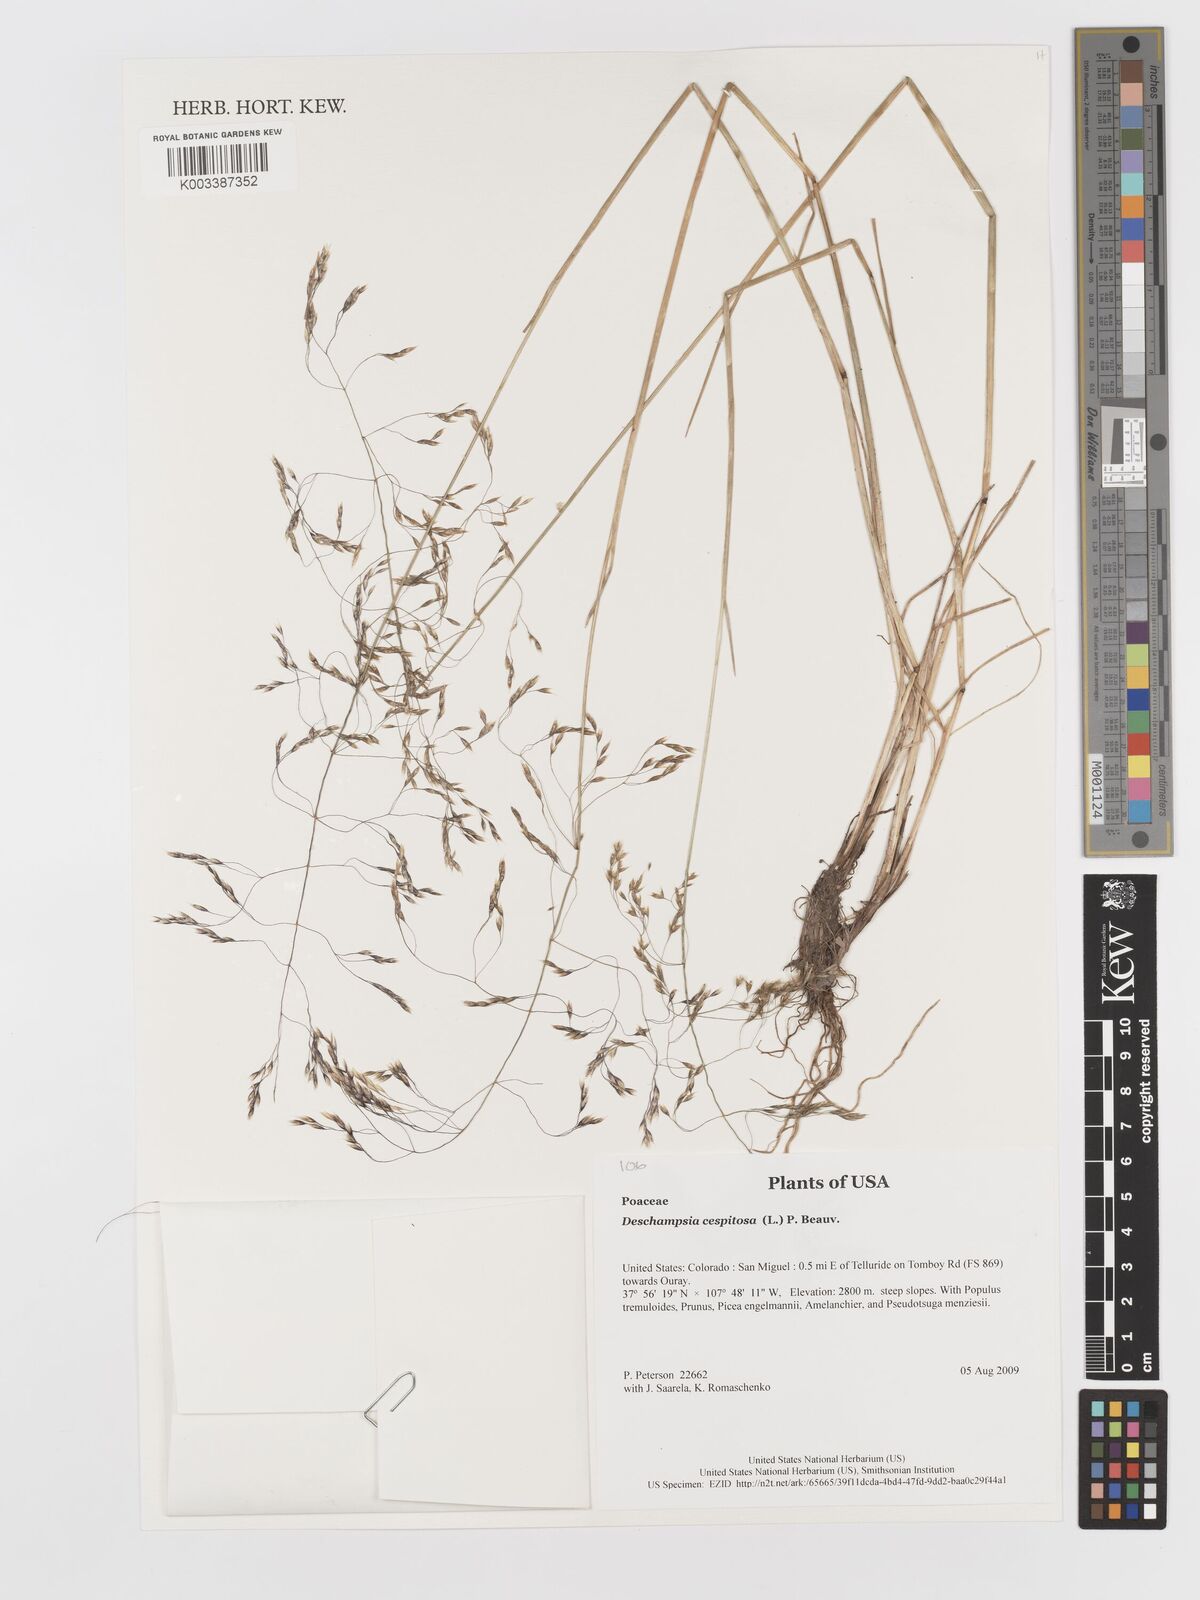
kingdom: Plantae
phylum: Tracheophyta
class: Liliopsida
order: Poales
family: Poaceae
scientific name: Poaceae
